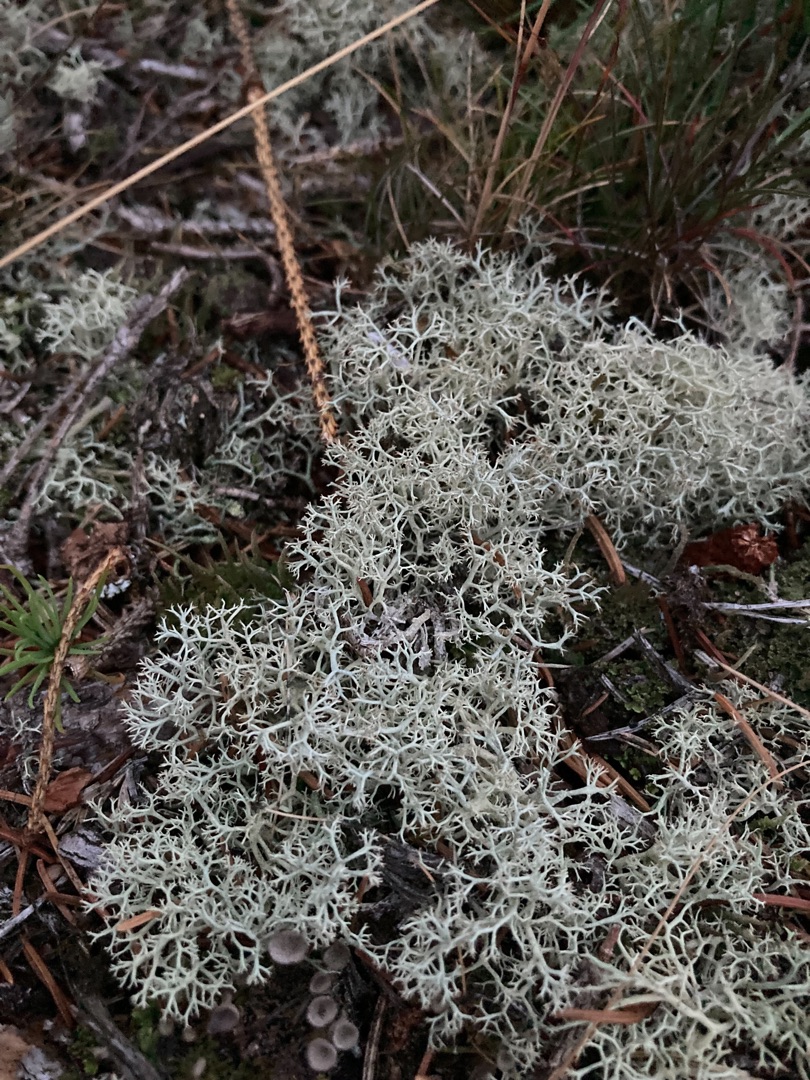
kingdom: Fungi
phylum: Ascomycota
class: Lecanoromycetes
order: Lecanorales
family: Cladoniaceae
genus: Cladonia
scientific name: Cladonia portentosa
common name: Hede-rensdyrlav
